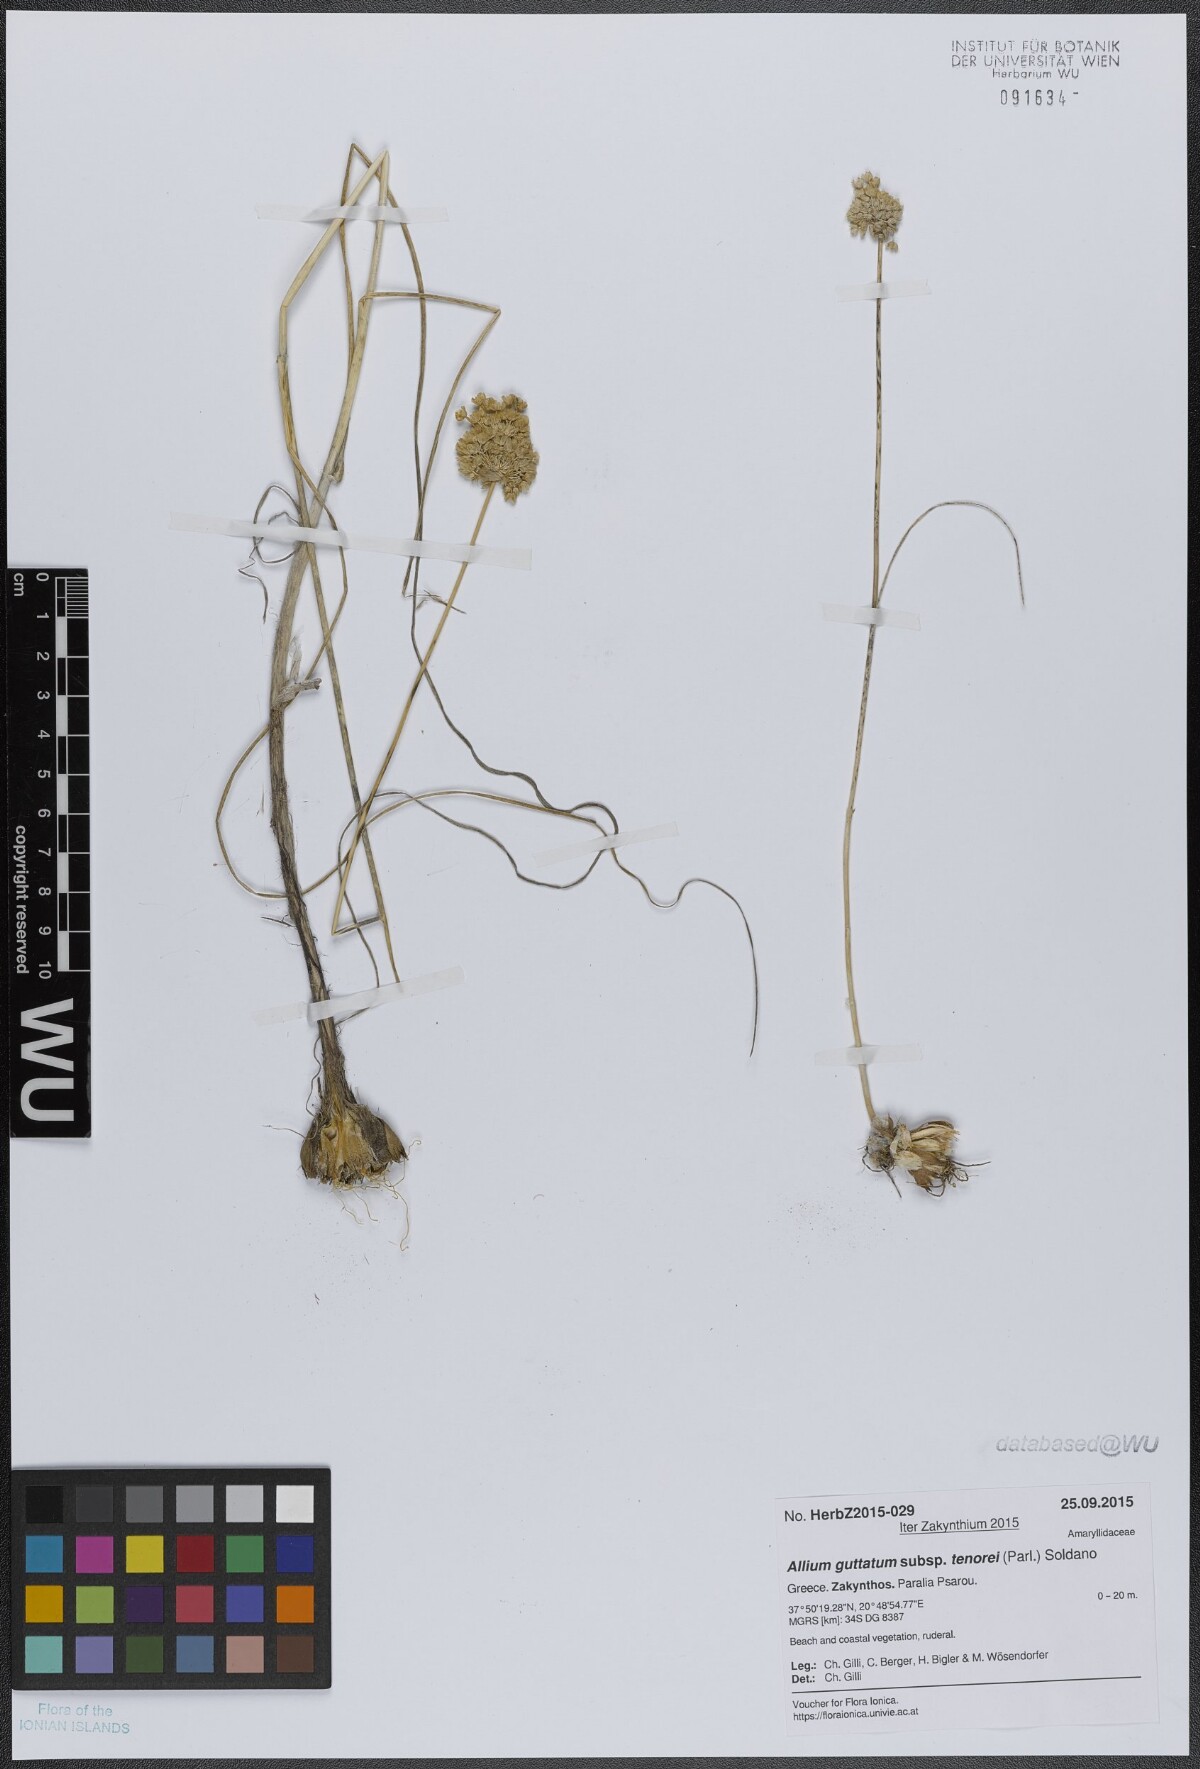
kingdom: Plantae
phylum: Tracheophyta
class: Liliopsida
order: Asparagales
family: Amaryllidaceae
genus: Allium
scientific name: Allium sardoum
